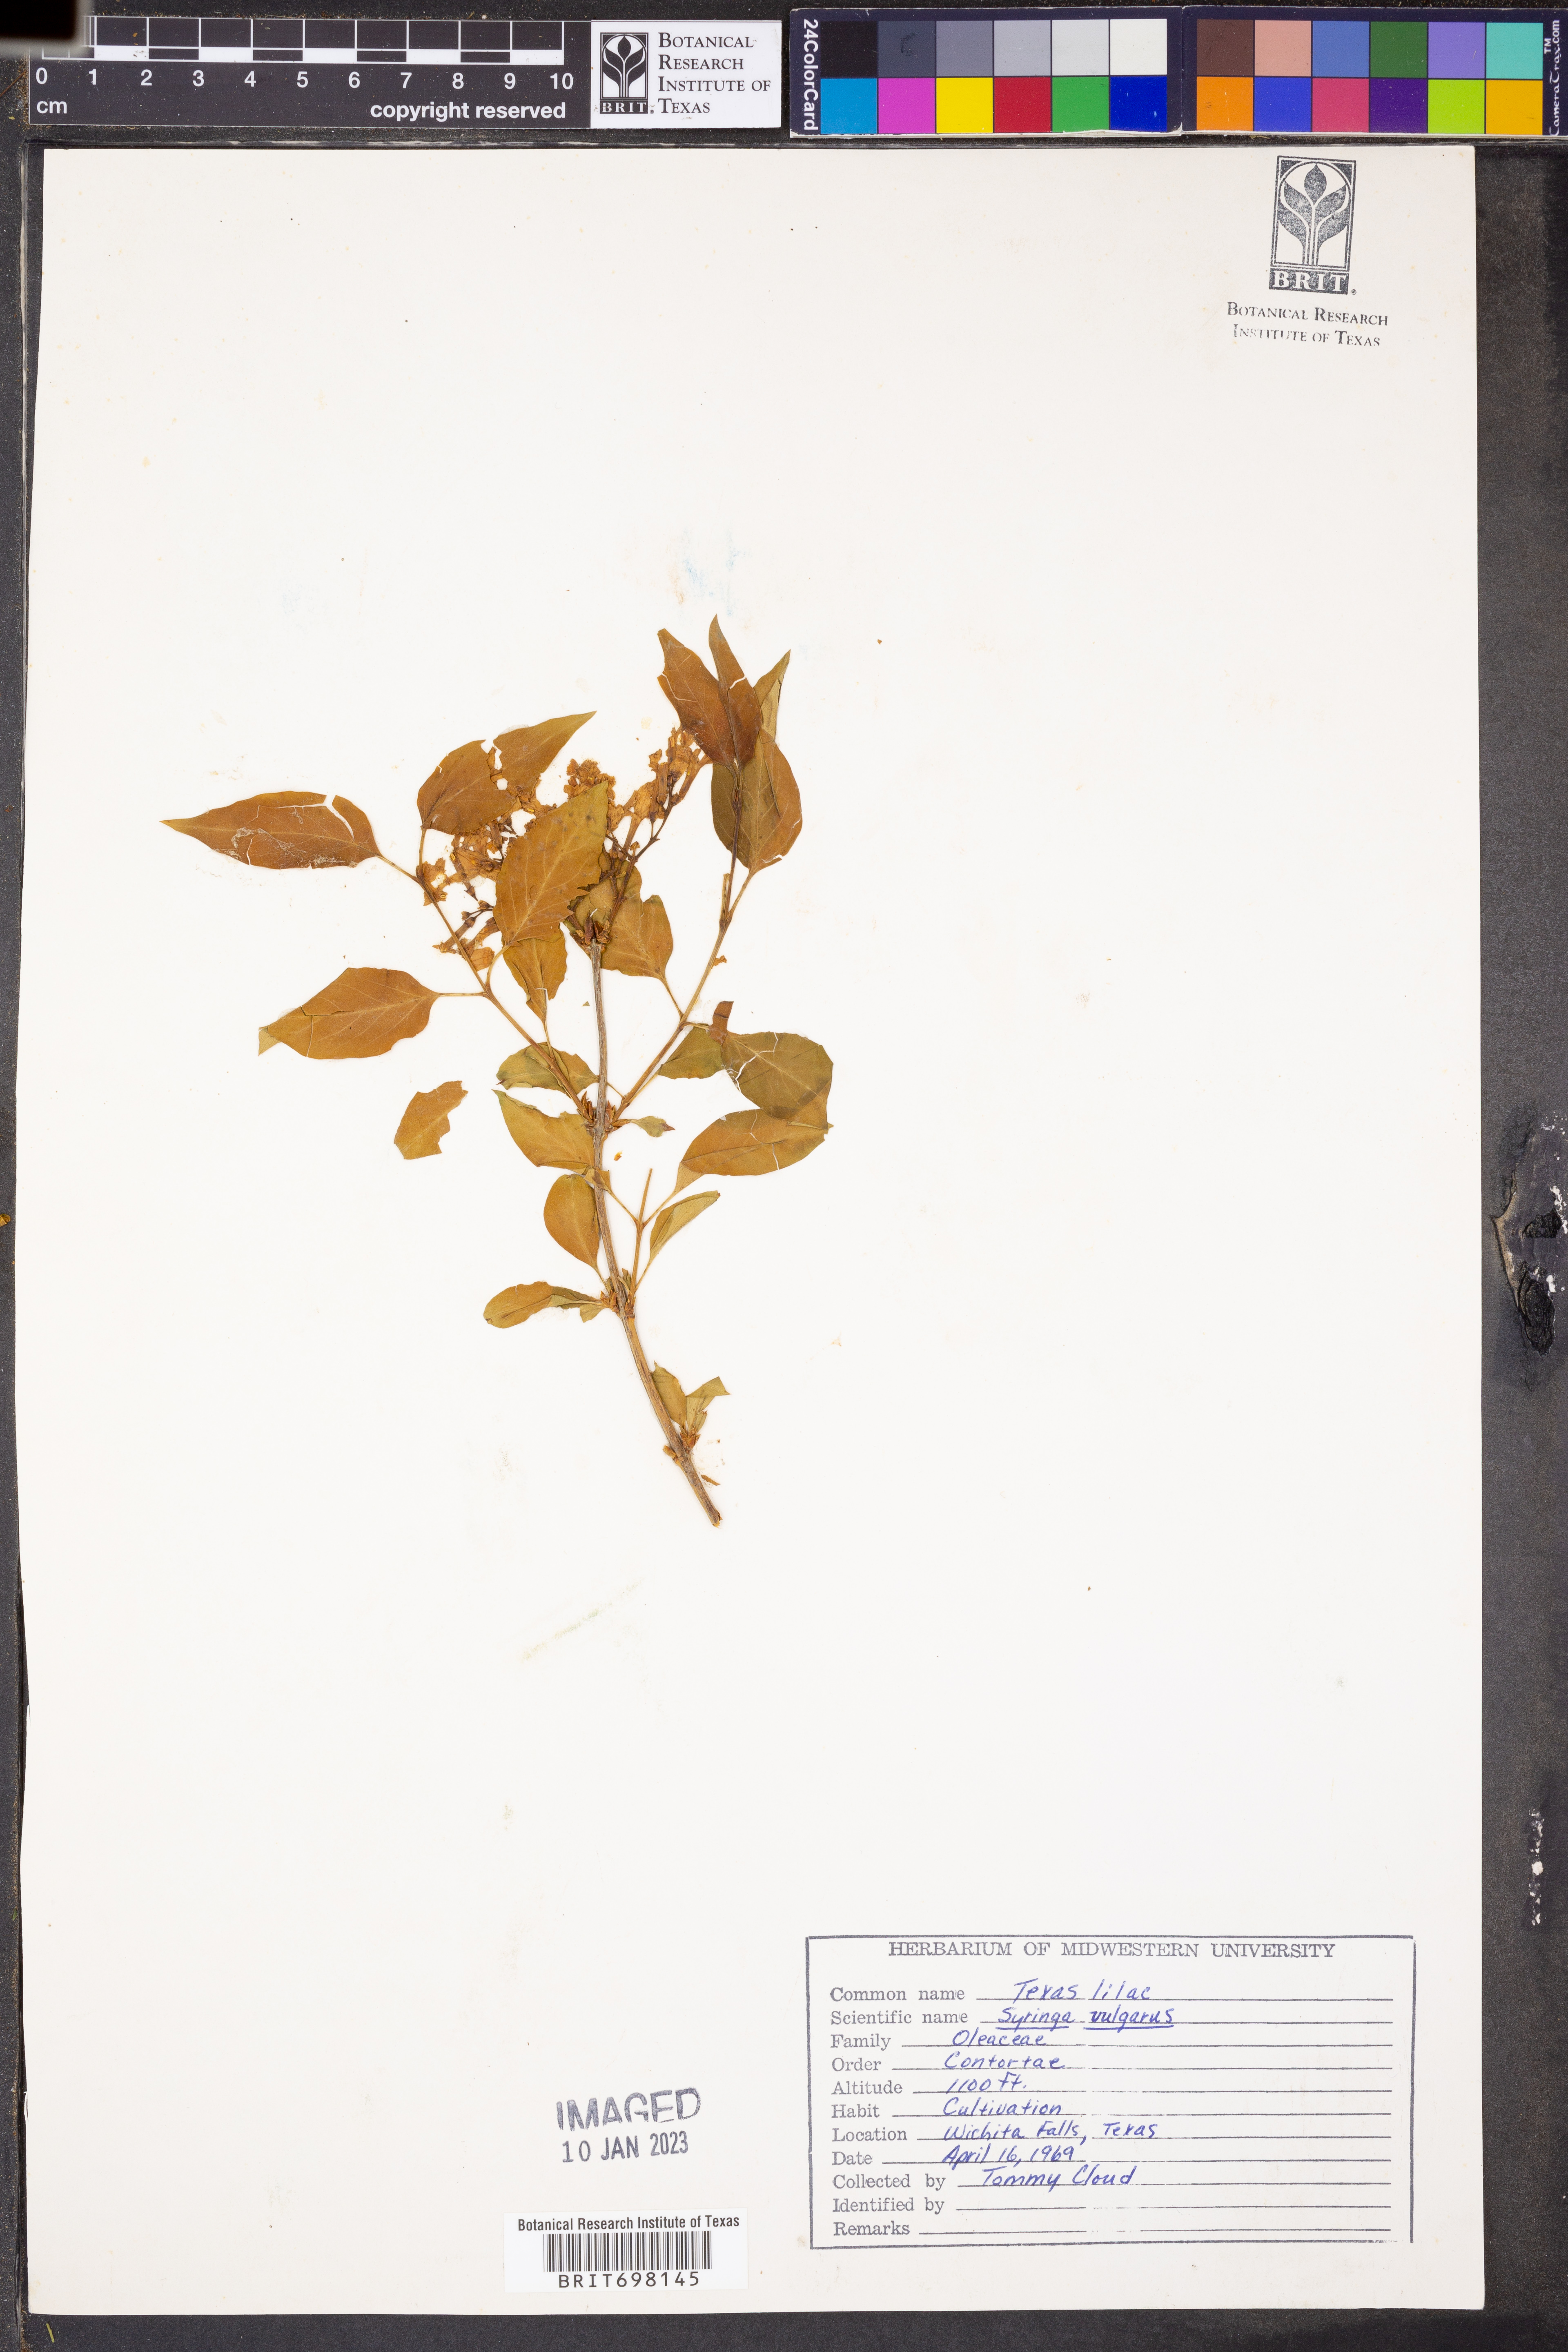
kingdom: Plantae
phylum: Tracheophyta
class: Magnoliopsida
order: Lamiales
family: Oleaceae
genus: Syringa
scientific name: Syringa vulgaris
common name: Common lilac
